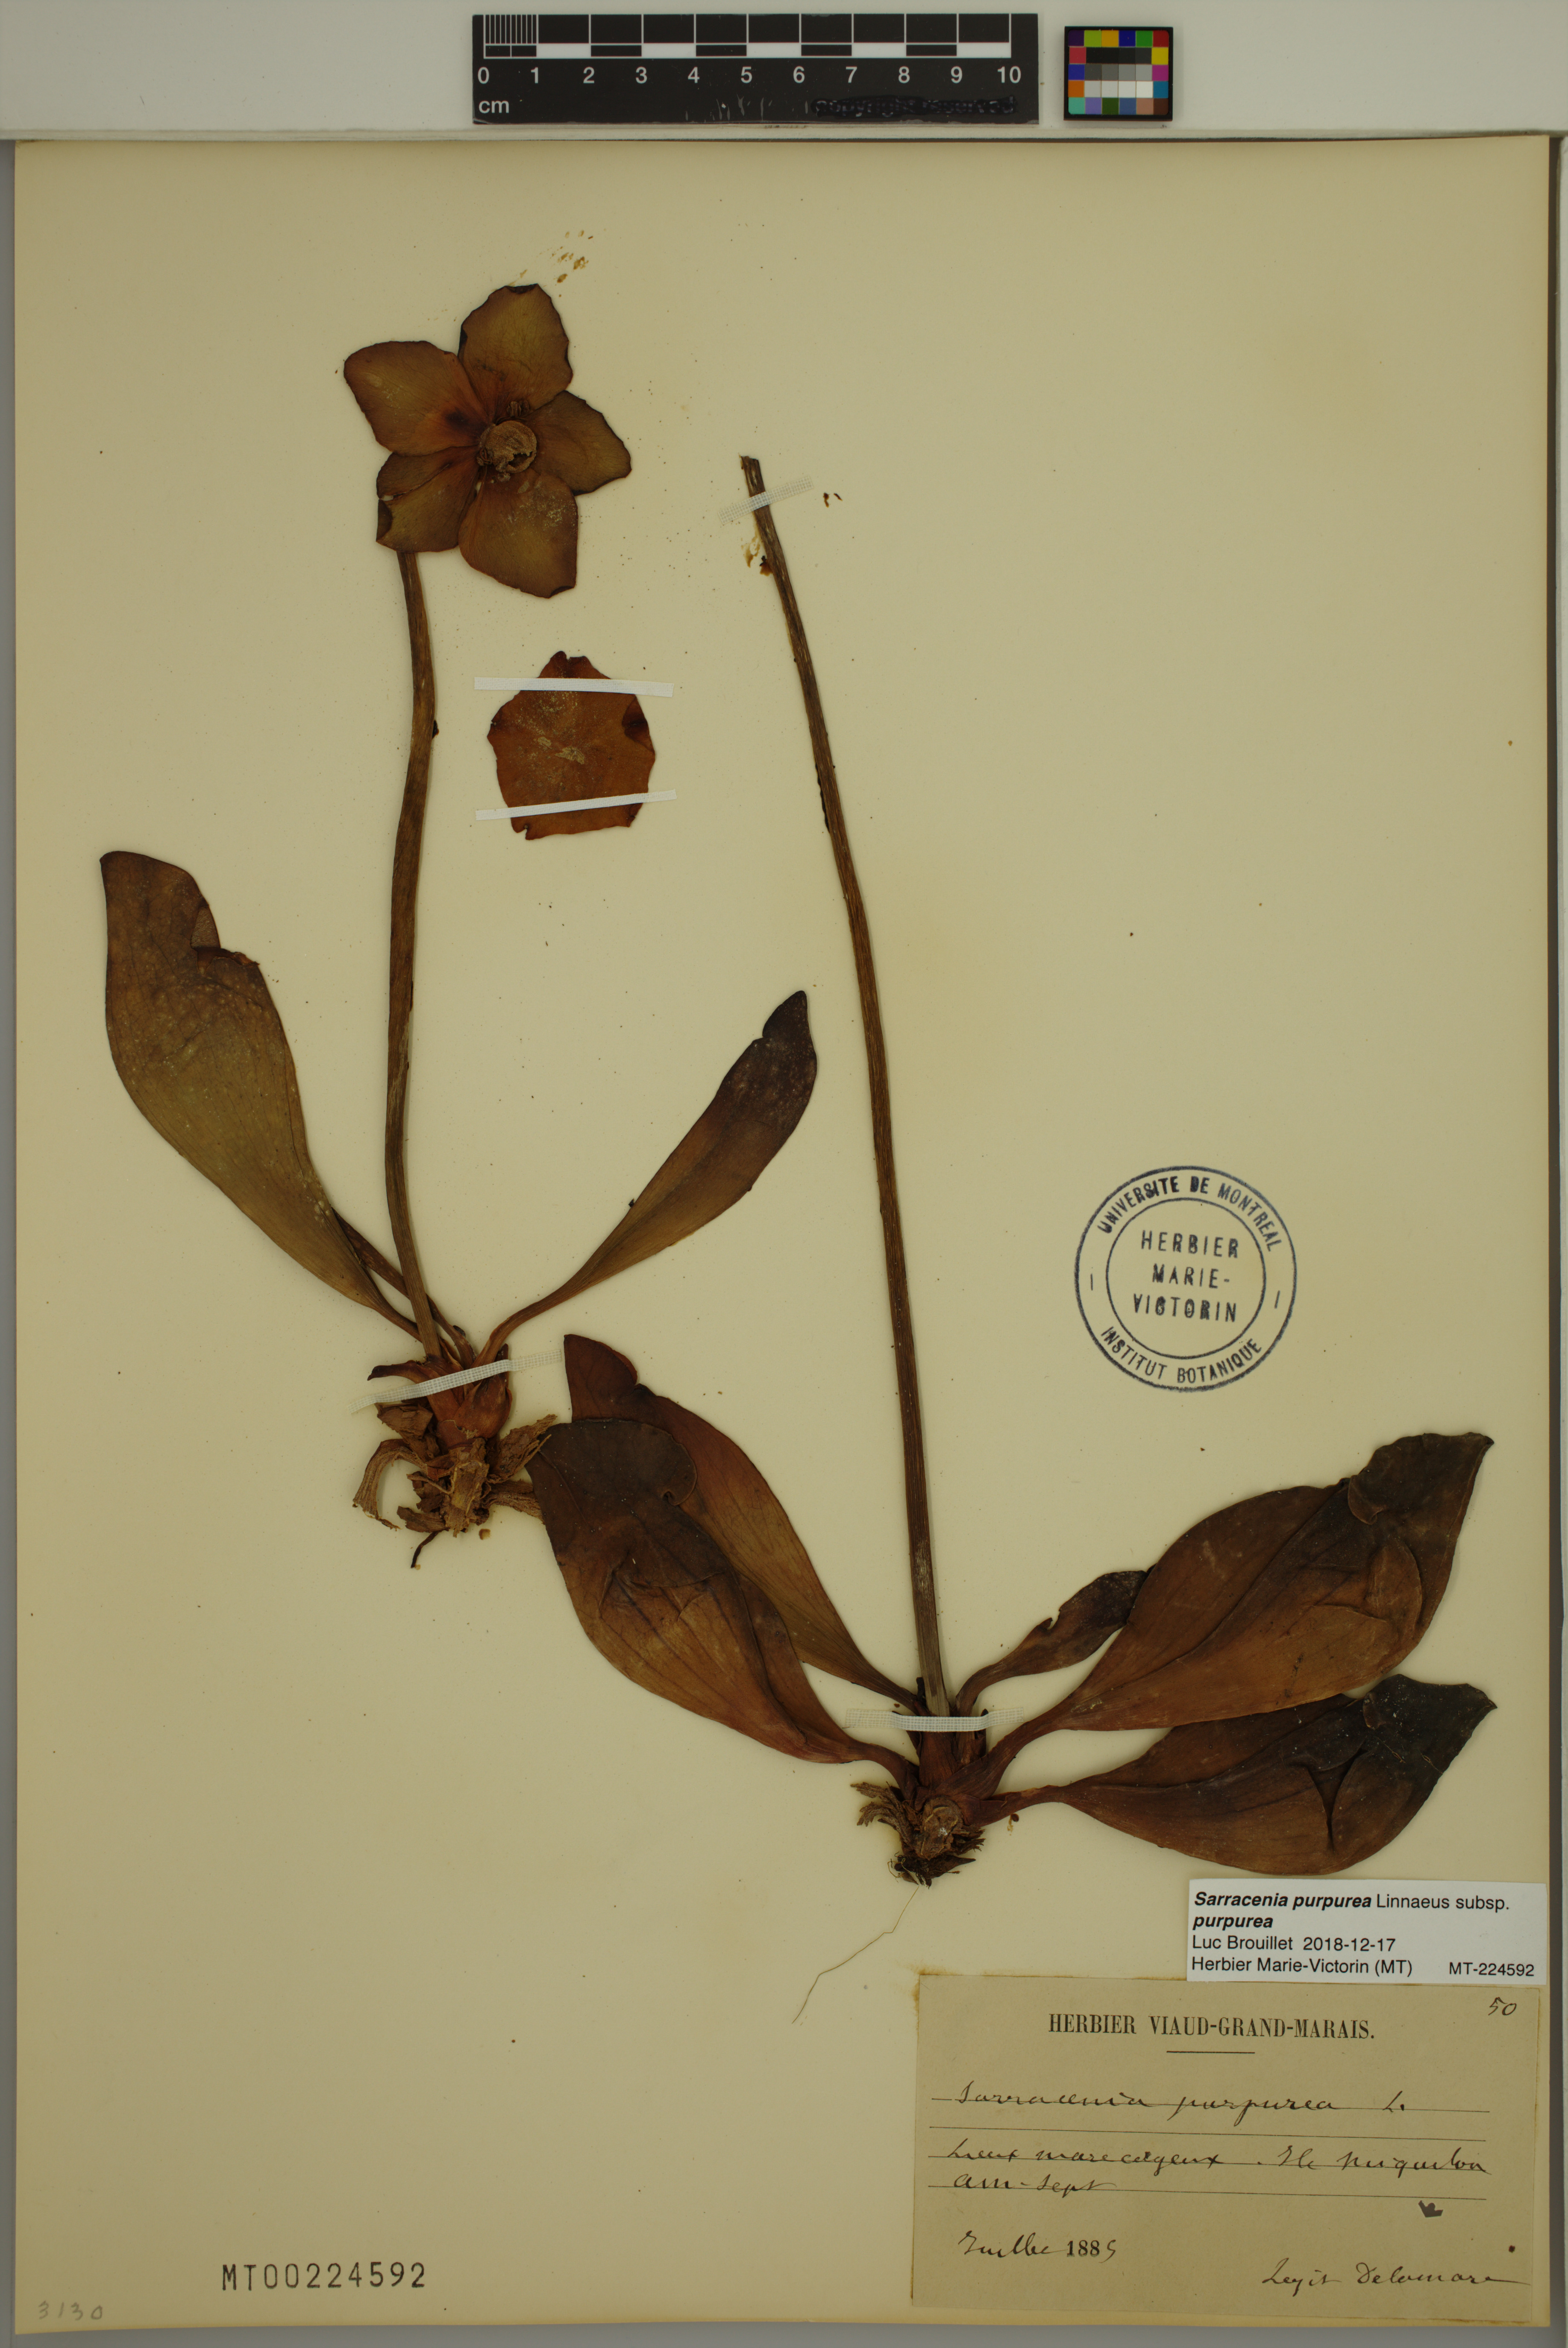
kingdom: Plantae
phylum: Tracheophyta
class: Magnoliopsida
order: Ericales
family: Sarraceniaceae
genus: Sarracenia
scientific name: Sarracenia purpurea
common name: Pitcherplant
